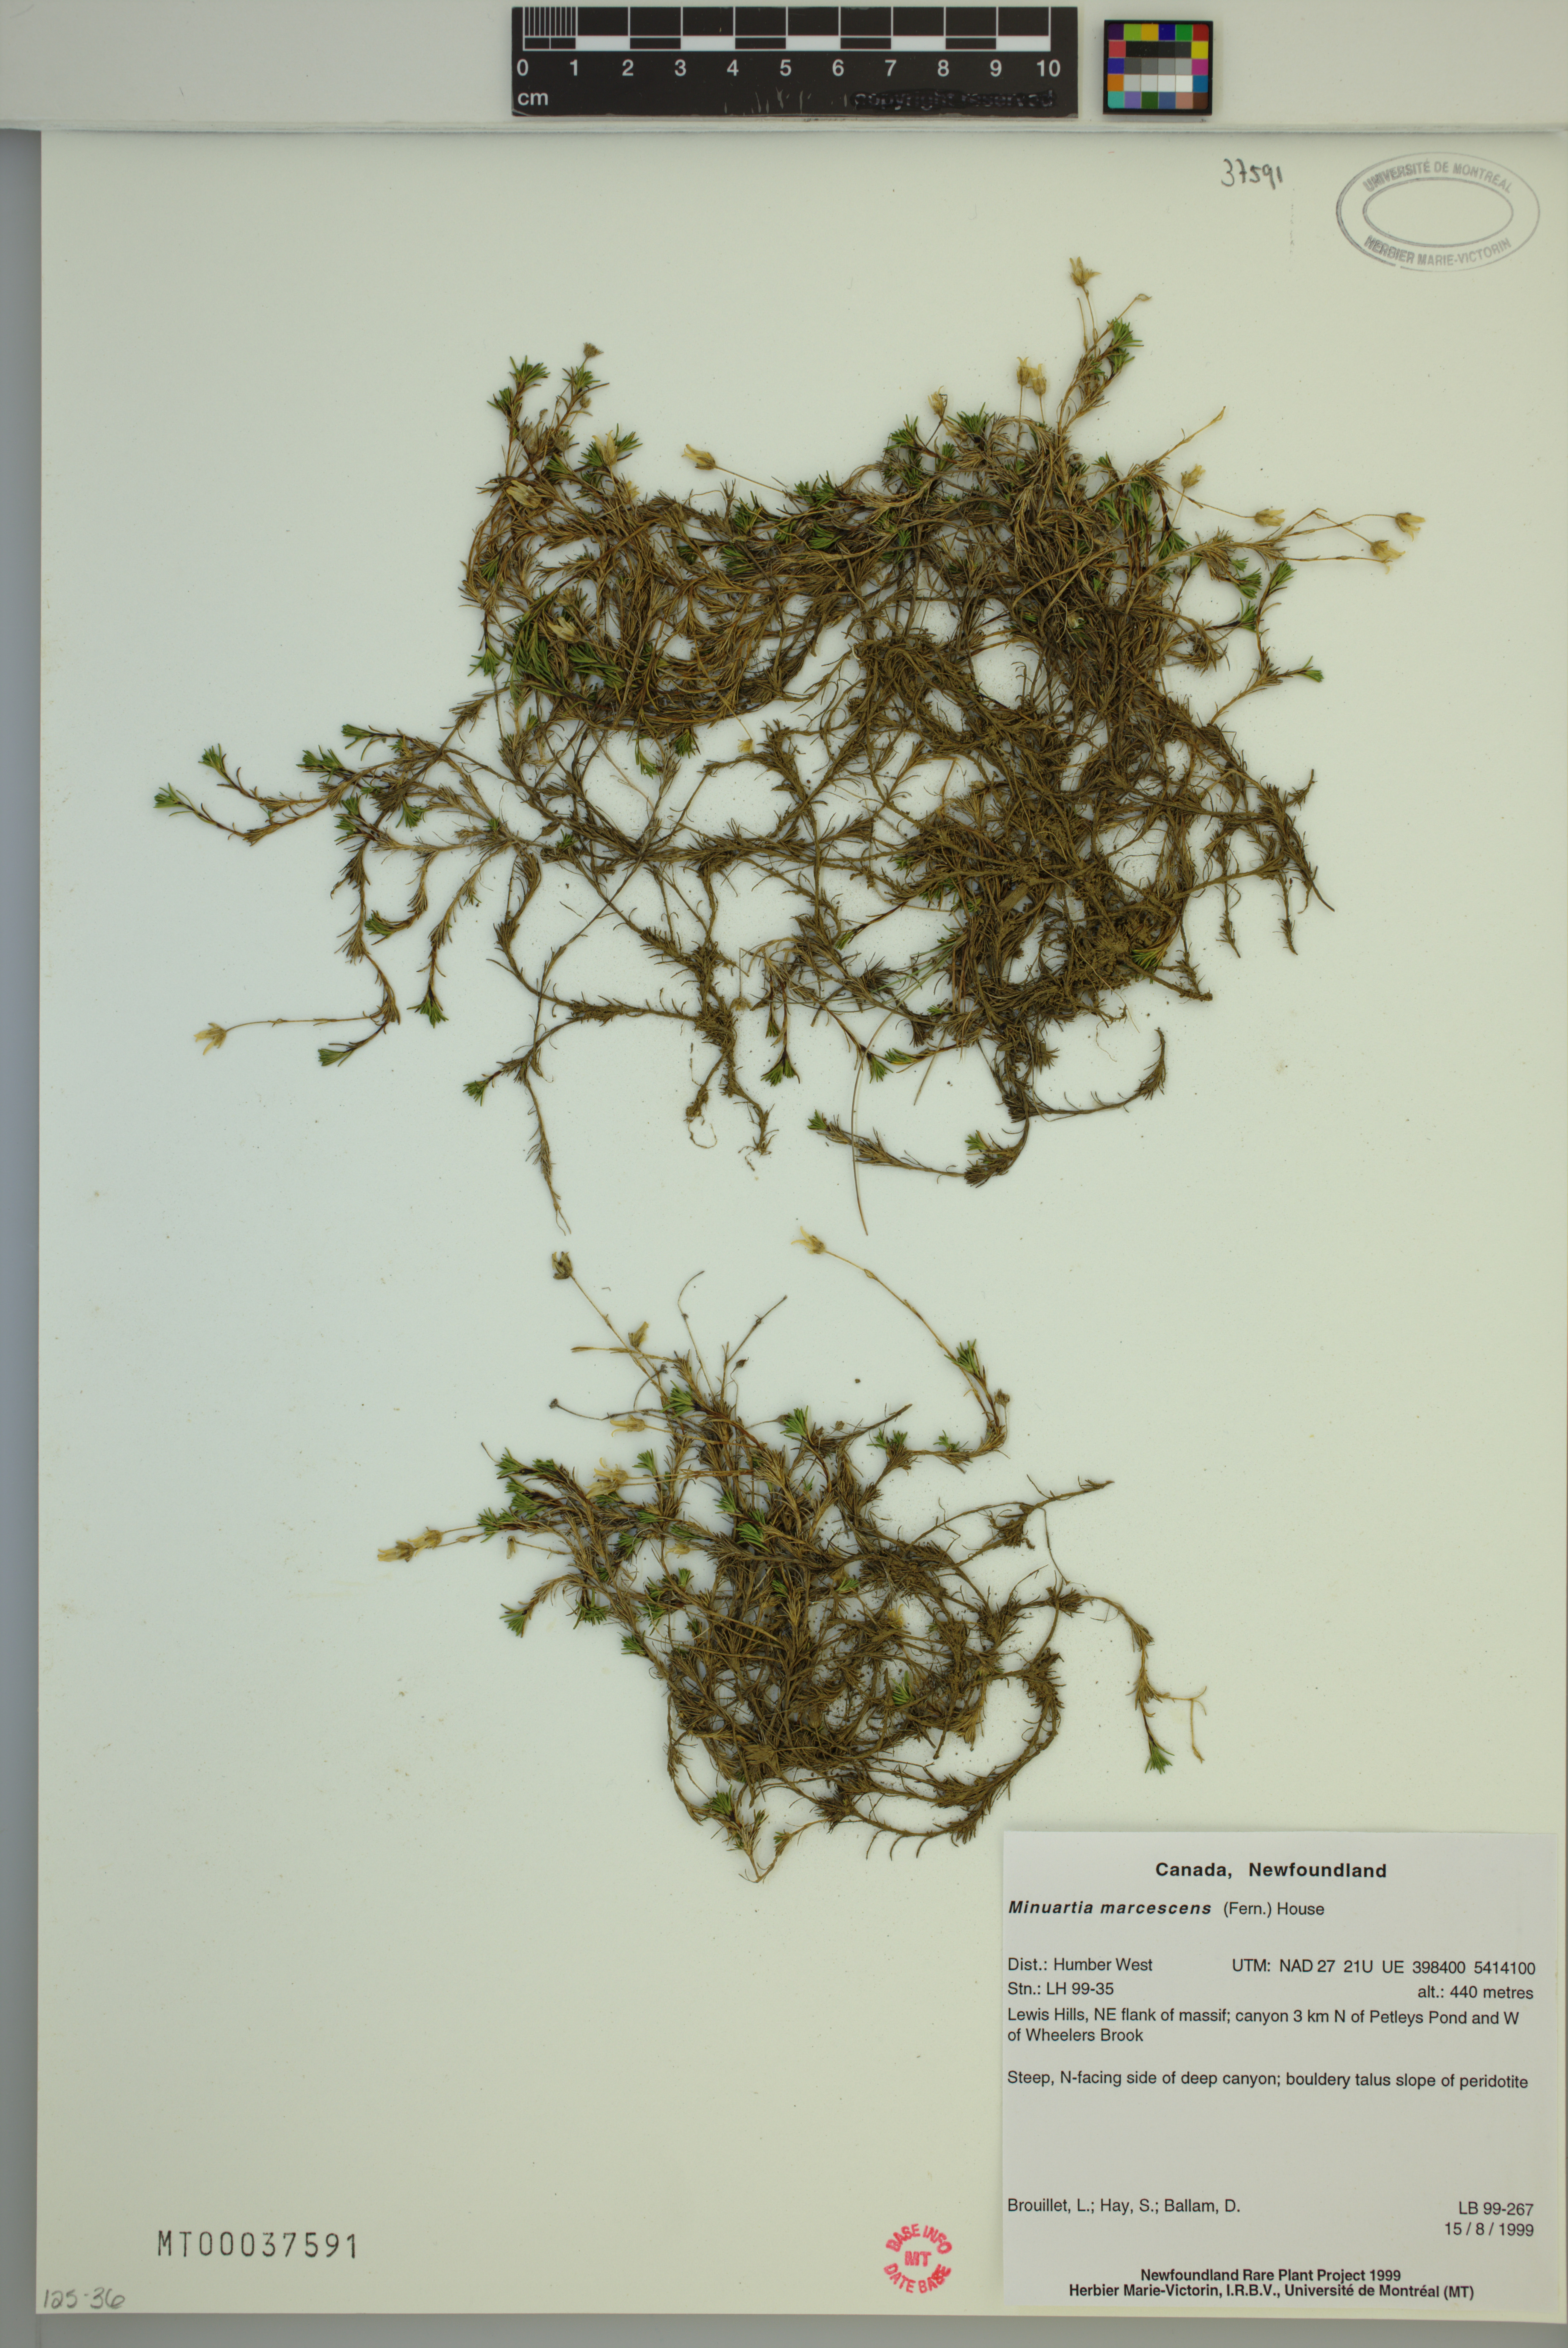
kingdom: Plantae
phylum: Tracheophyta
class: Magnoliopsida
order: Caryophyllales
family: Caryophyllaceae
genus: Cherleria
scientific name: Cherleria marcescens
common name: Dry-leaved sandwort
